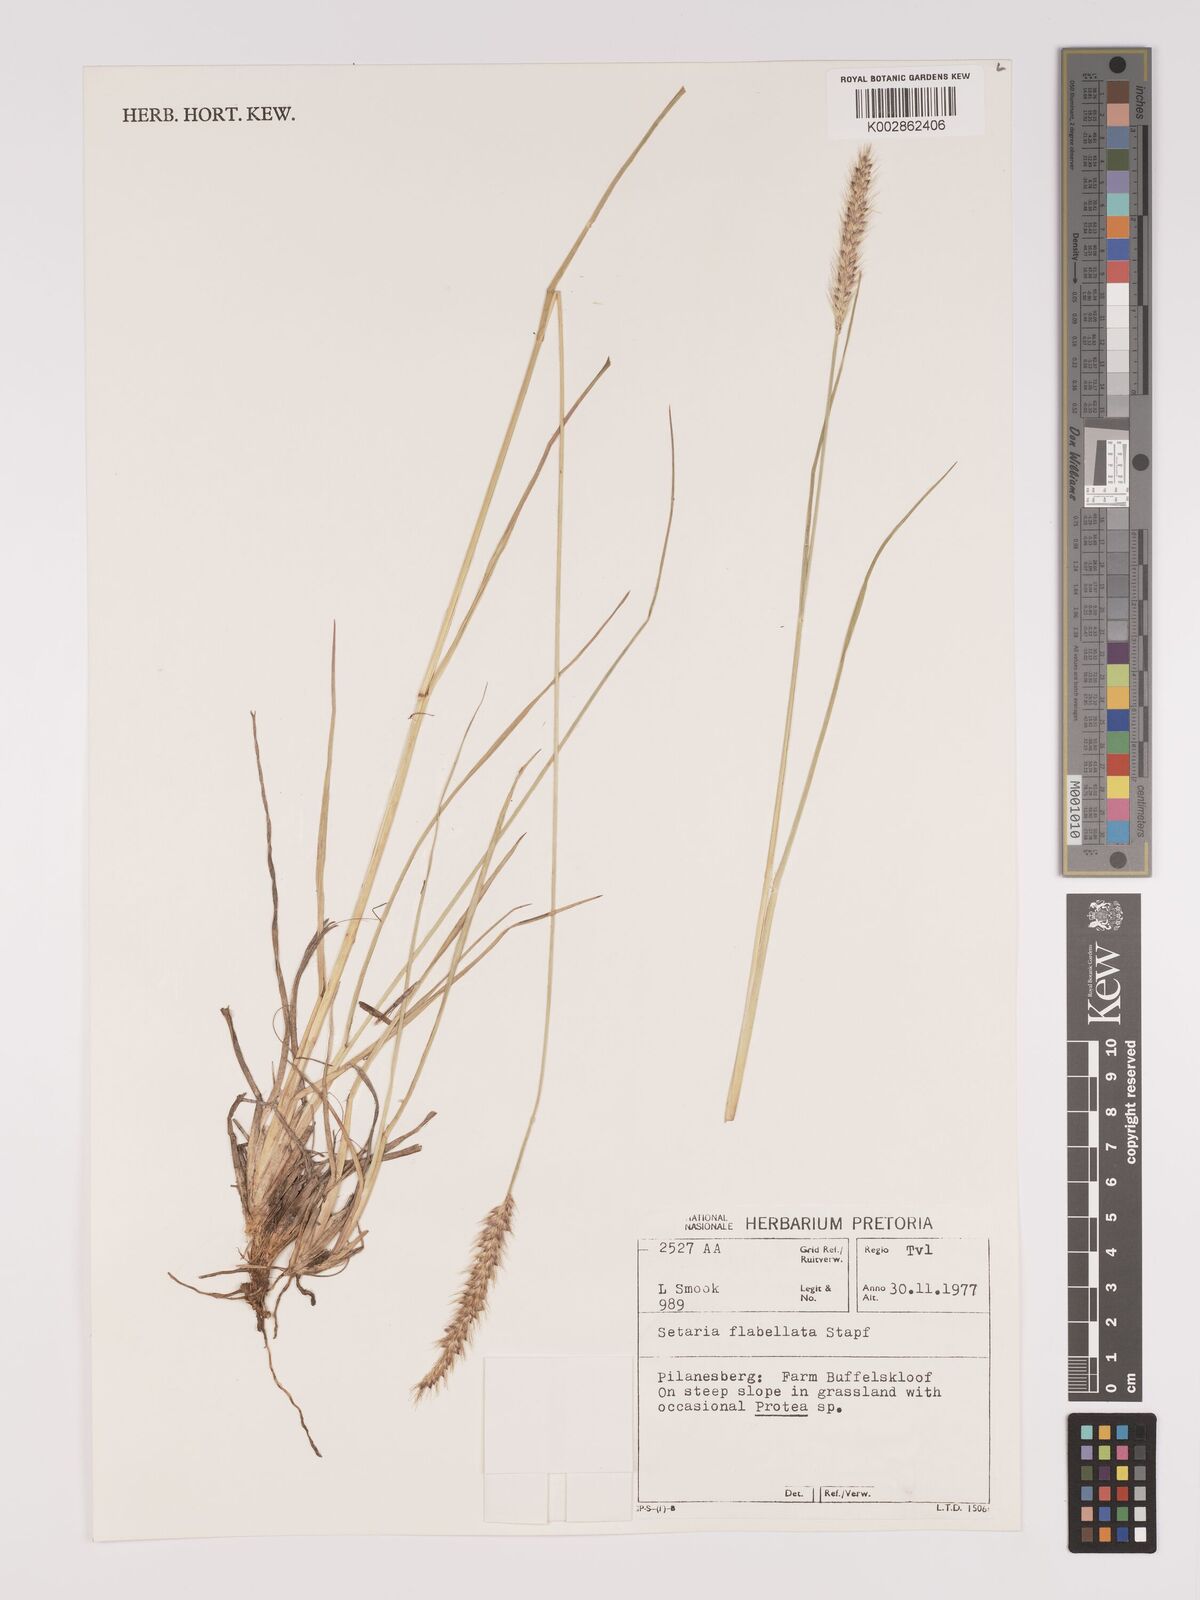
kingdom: Plantae
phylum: Tracheophyta
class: Liliopsida
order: Poales
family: Poaceae
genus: Setaria
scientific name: Setaria sphacelata
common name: African bristlegrass
